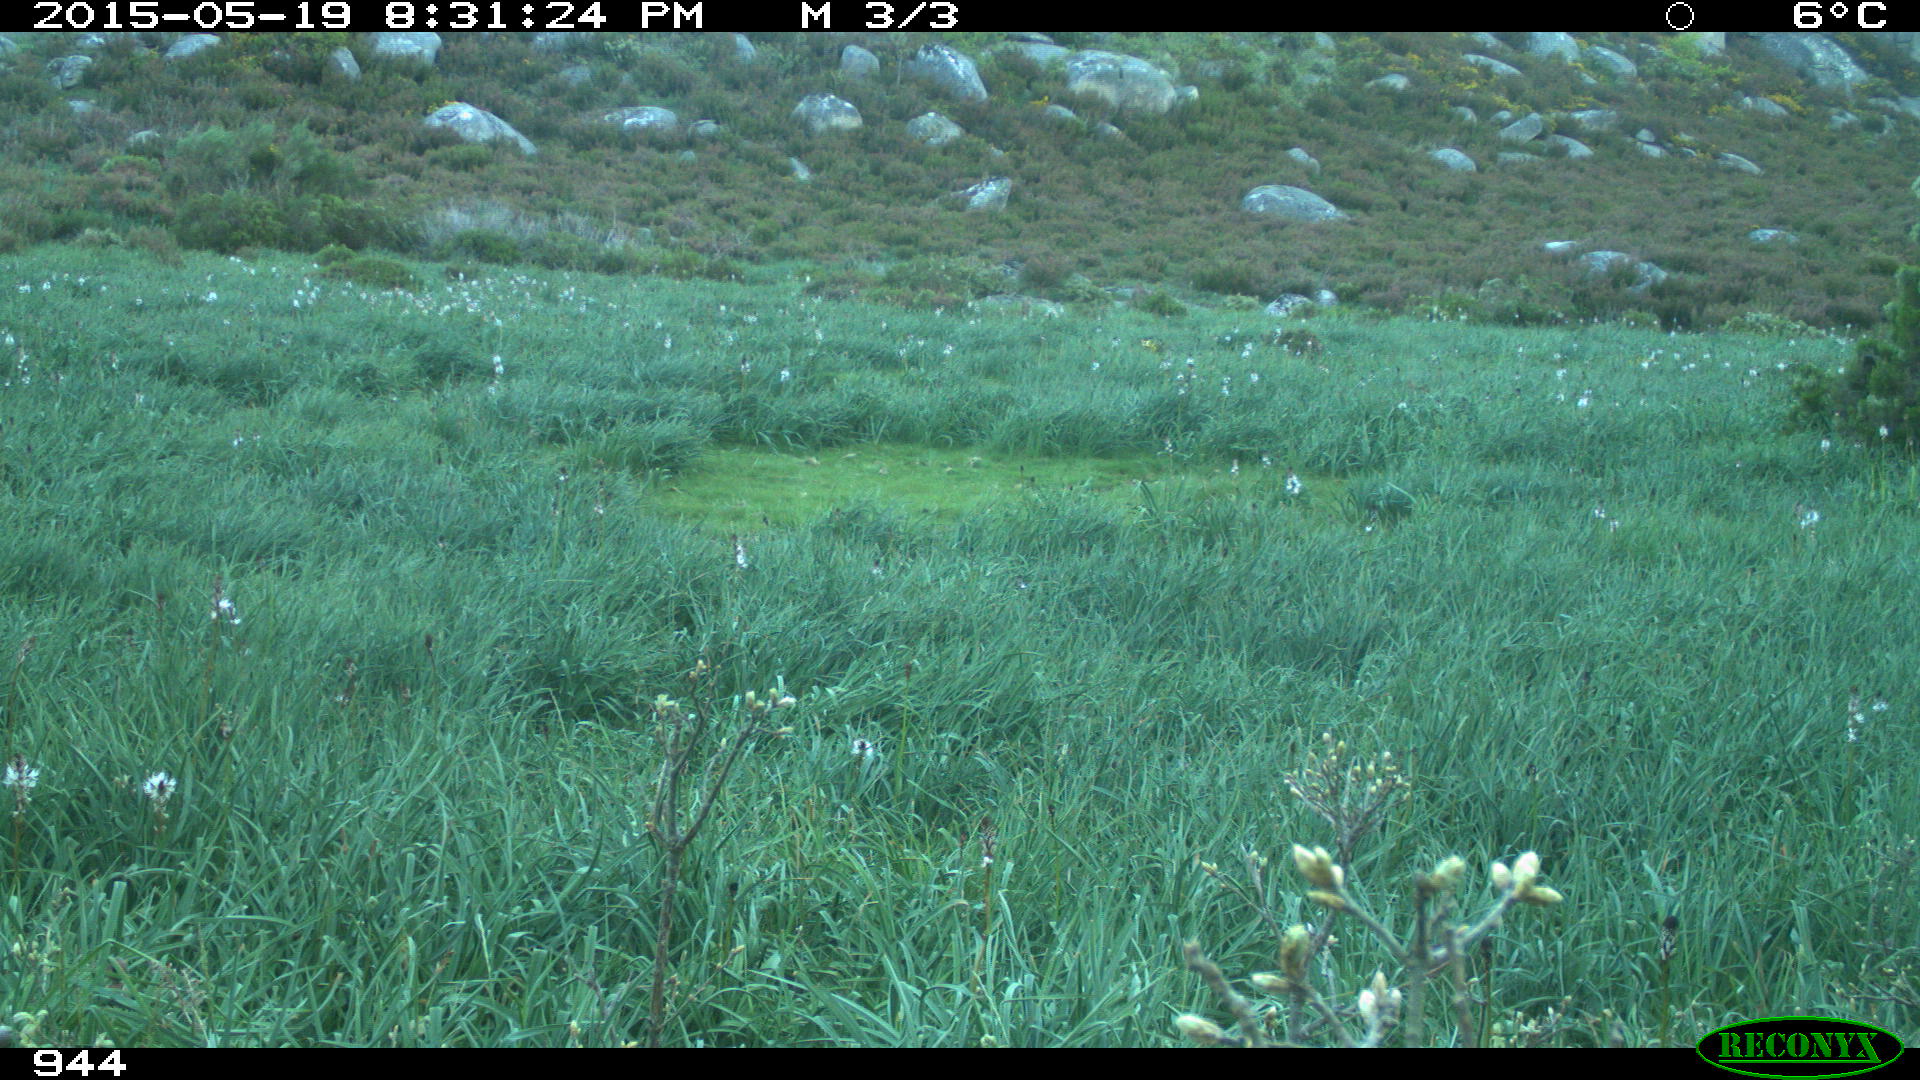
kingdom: Animalia
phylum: Chordata
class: Mammalia
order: Artiodactyla
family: Bovidae
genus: Bos
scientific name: Bos taurus
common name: Domesticated cattle
